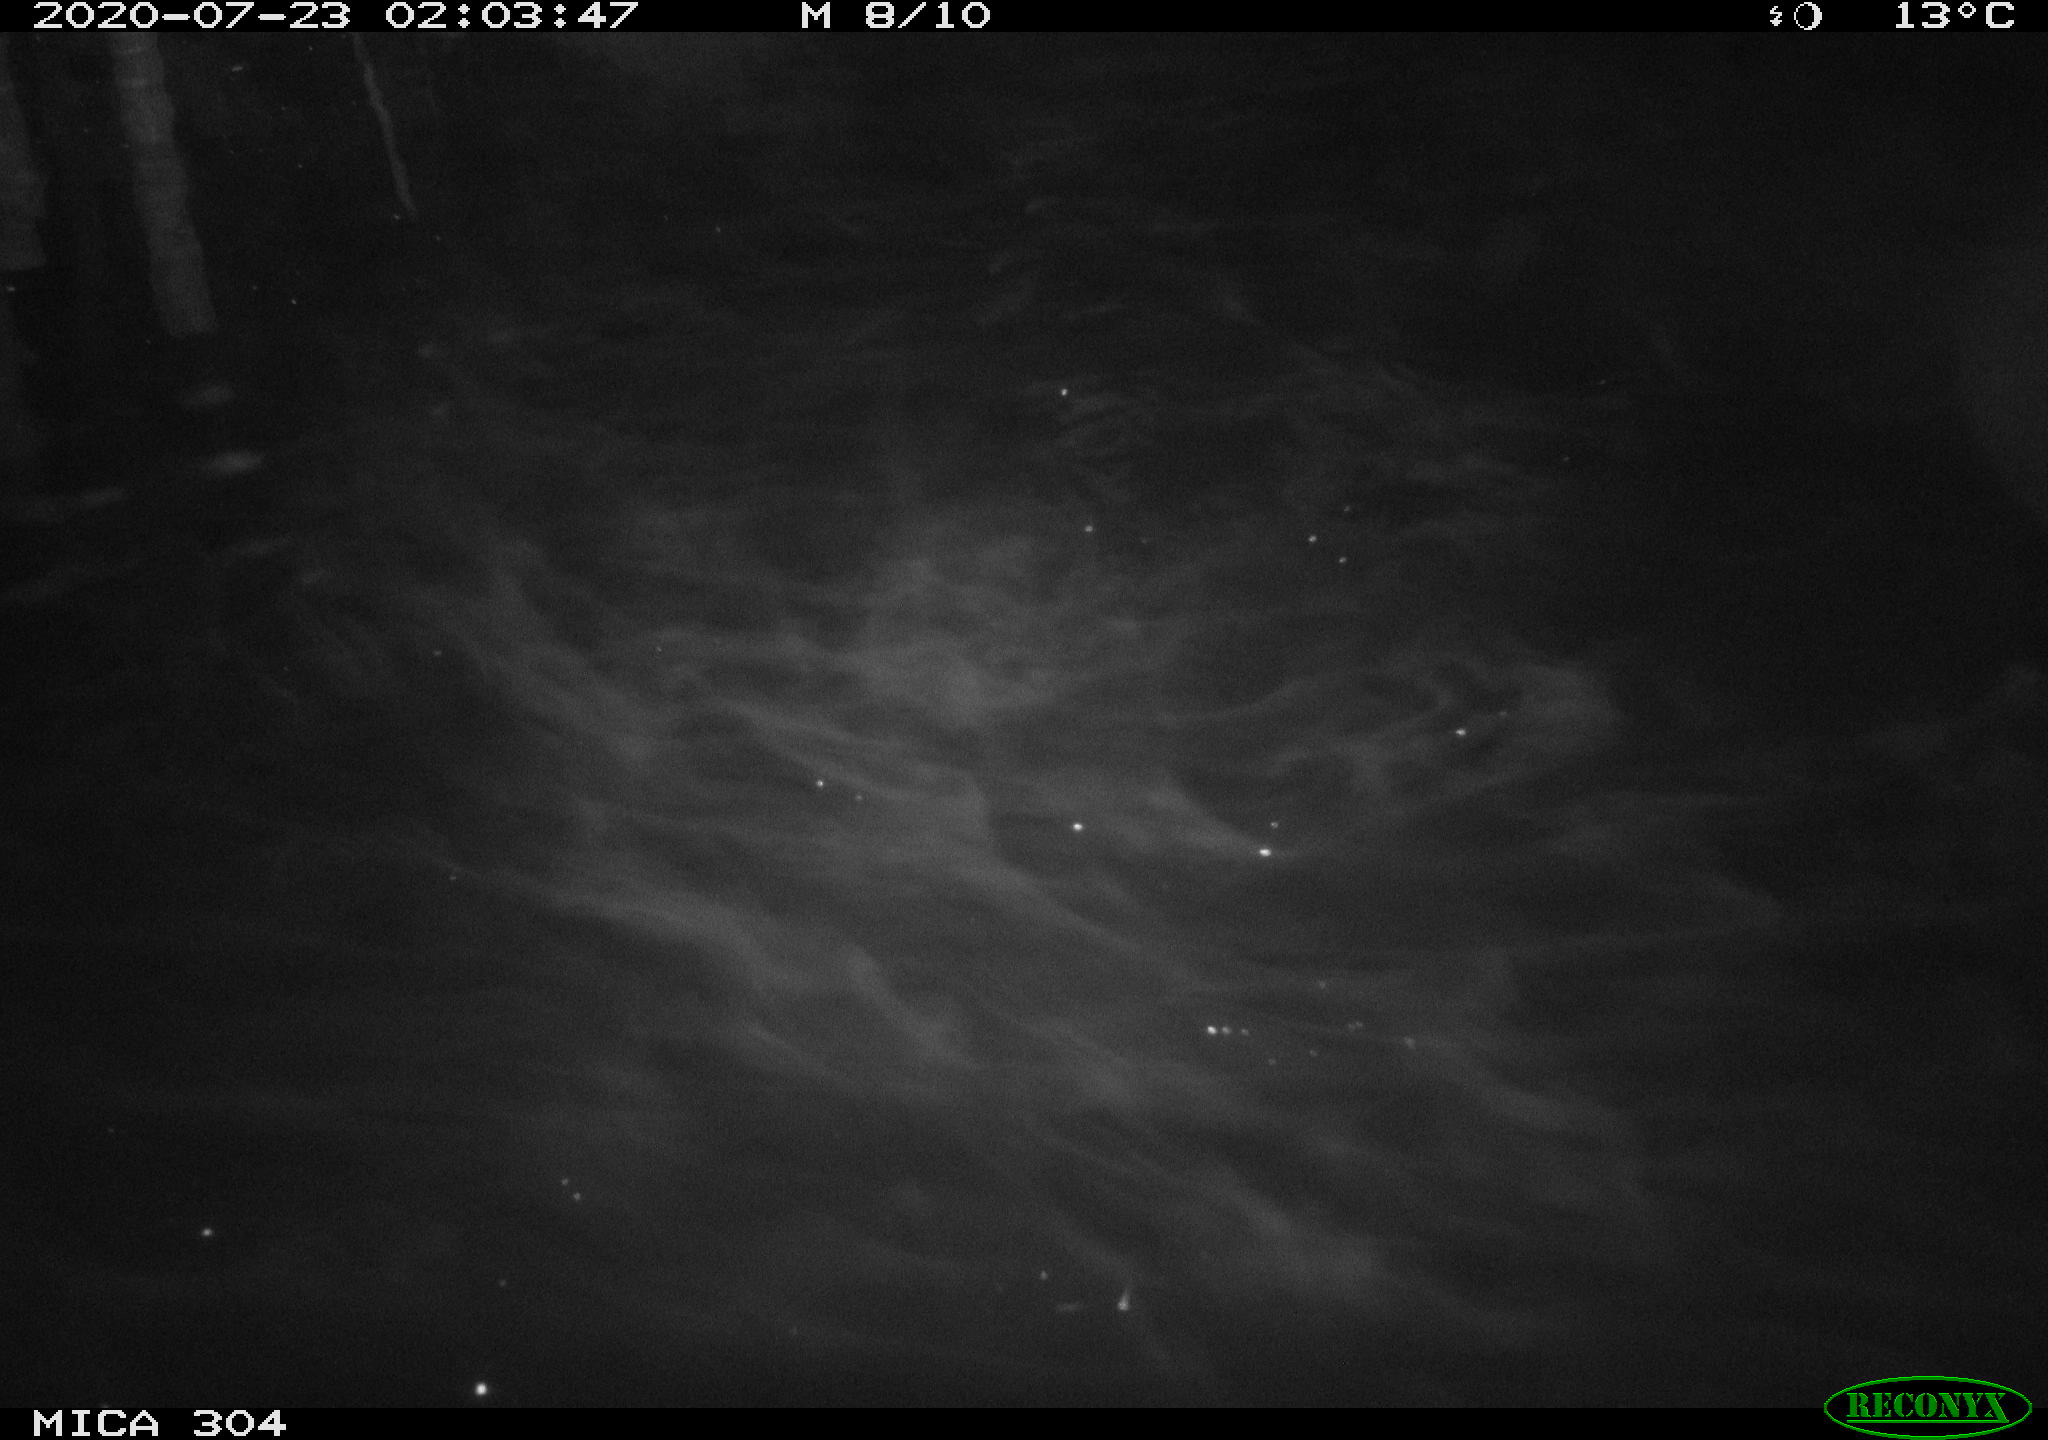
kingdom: Animalia
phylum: Chordata
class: Mammalia
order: Rodentia
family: Cricetidae
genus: Ondatra
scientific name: Ondatra zibethicus
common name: Muskrat
